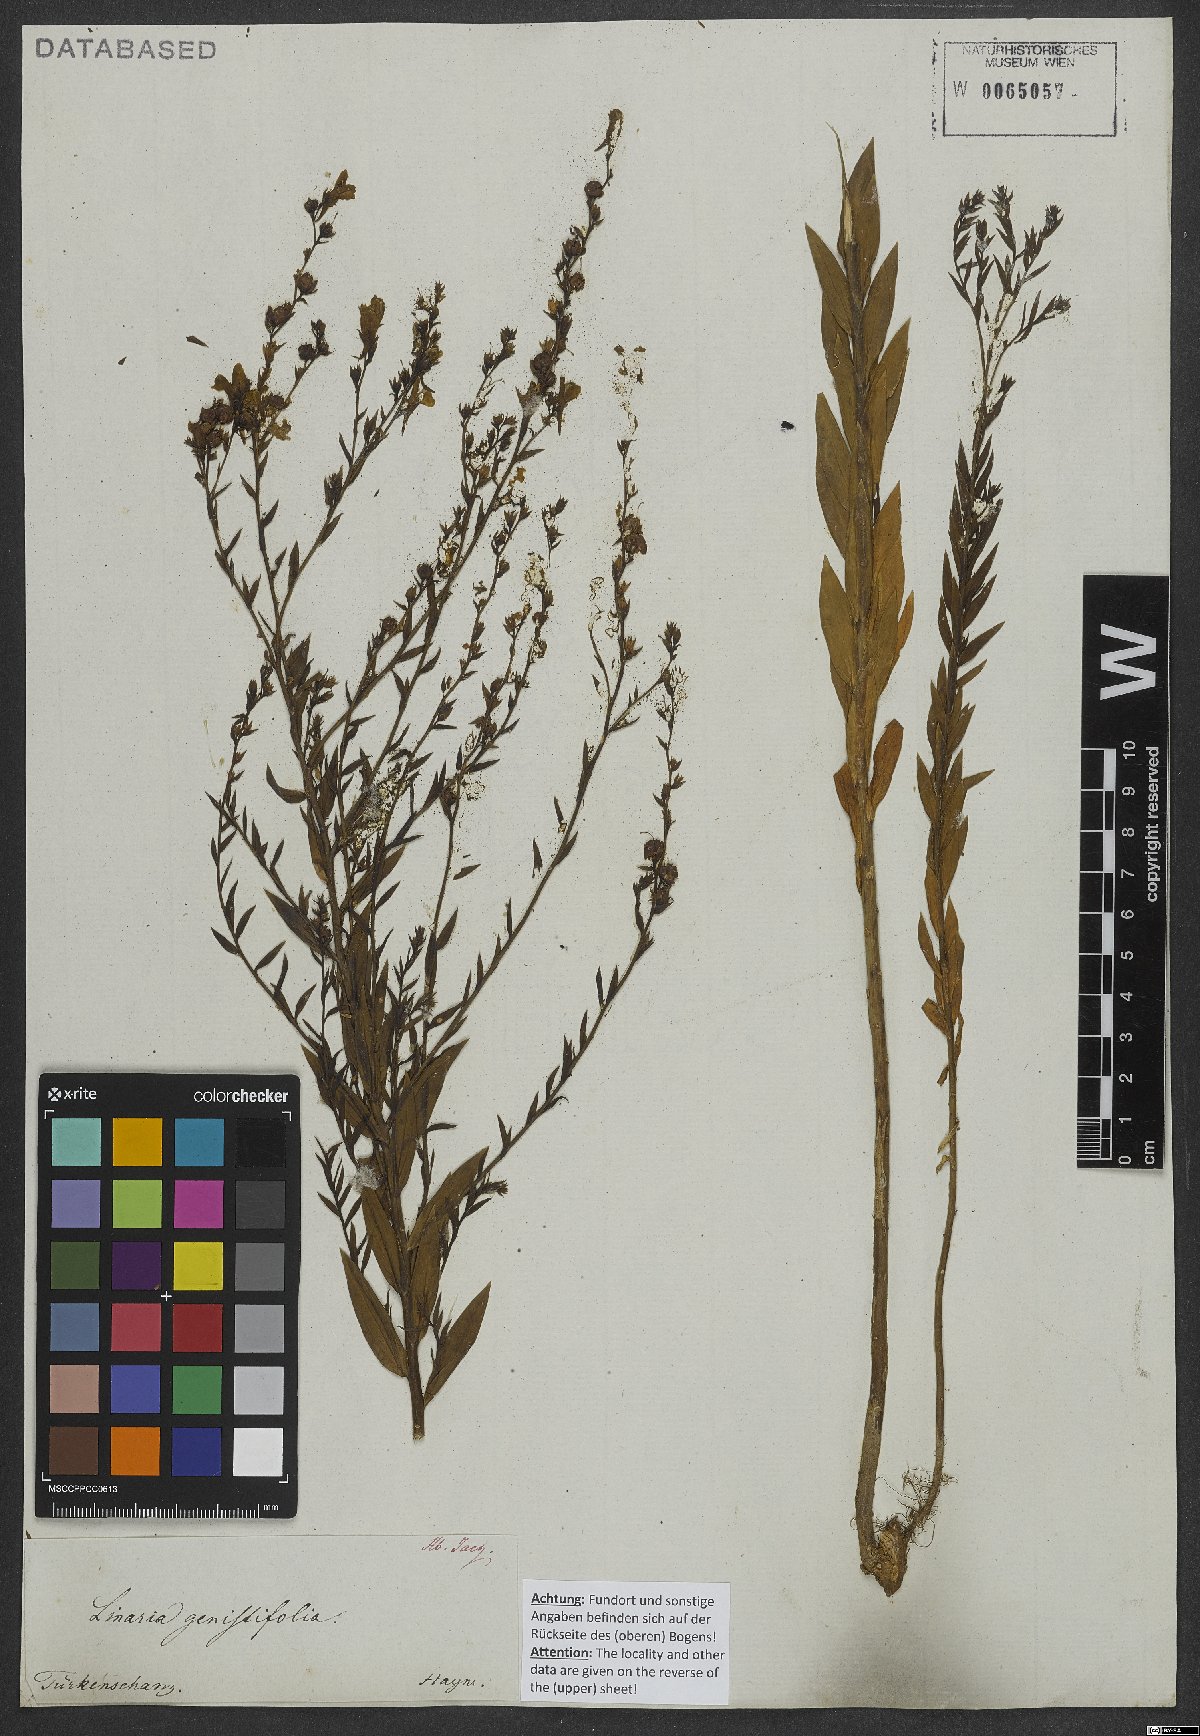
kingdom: Plantae
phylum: Tracheophyta
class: Magnoliopsida
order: Lamiales
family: Plantaginaceae
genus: Linaria
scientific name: Linaria genistifolia
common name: Broomleaf toadflax
